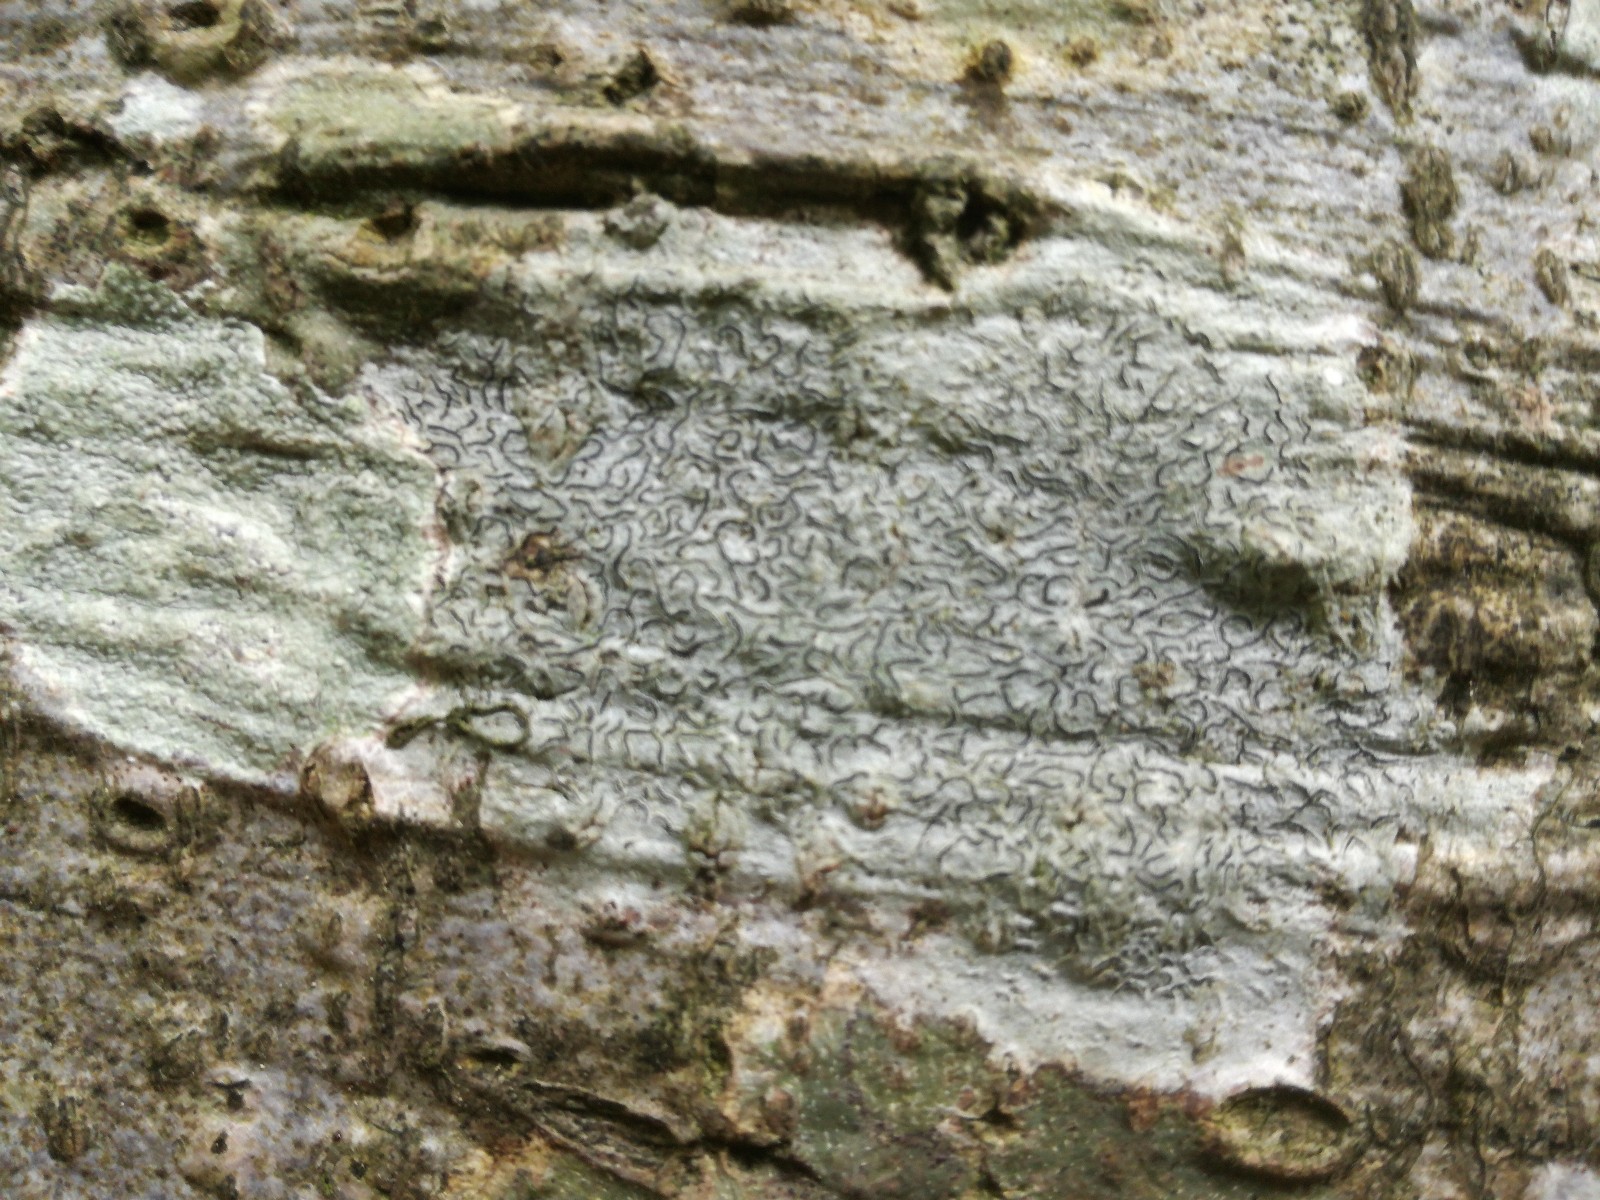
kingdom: Fungi
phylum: Ascomycota
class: Lecanoromycetes
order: Ostropales
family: Graphidaceae
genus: Graphis
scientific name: Graphis scripta
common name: almindelig skriftlav
